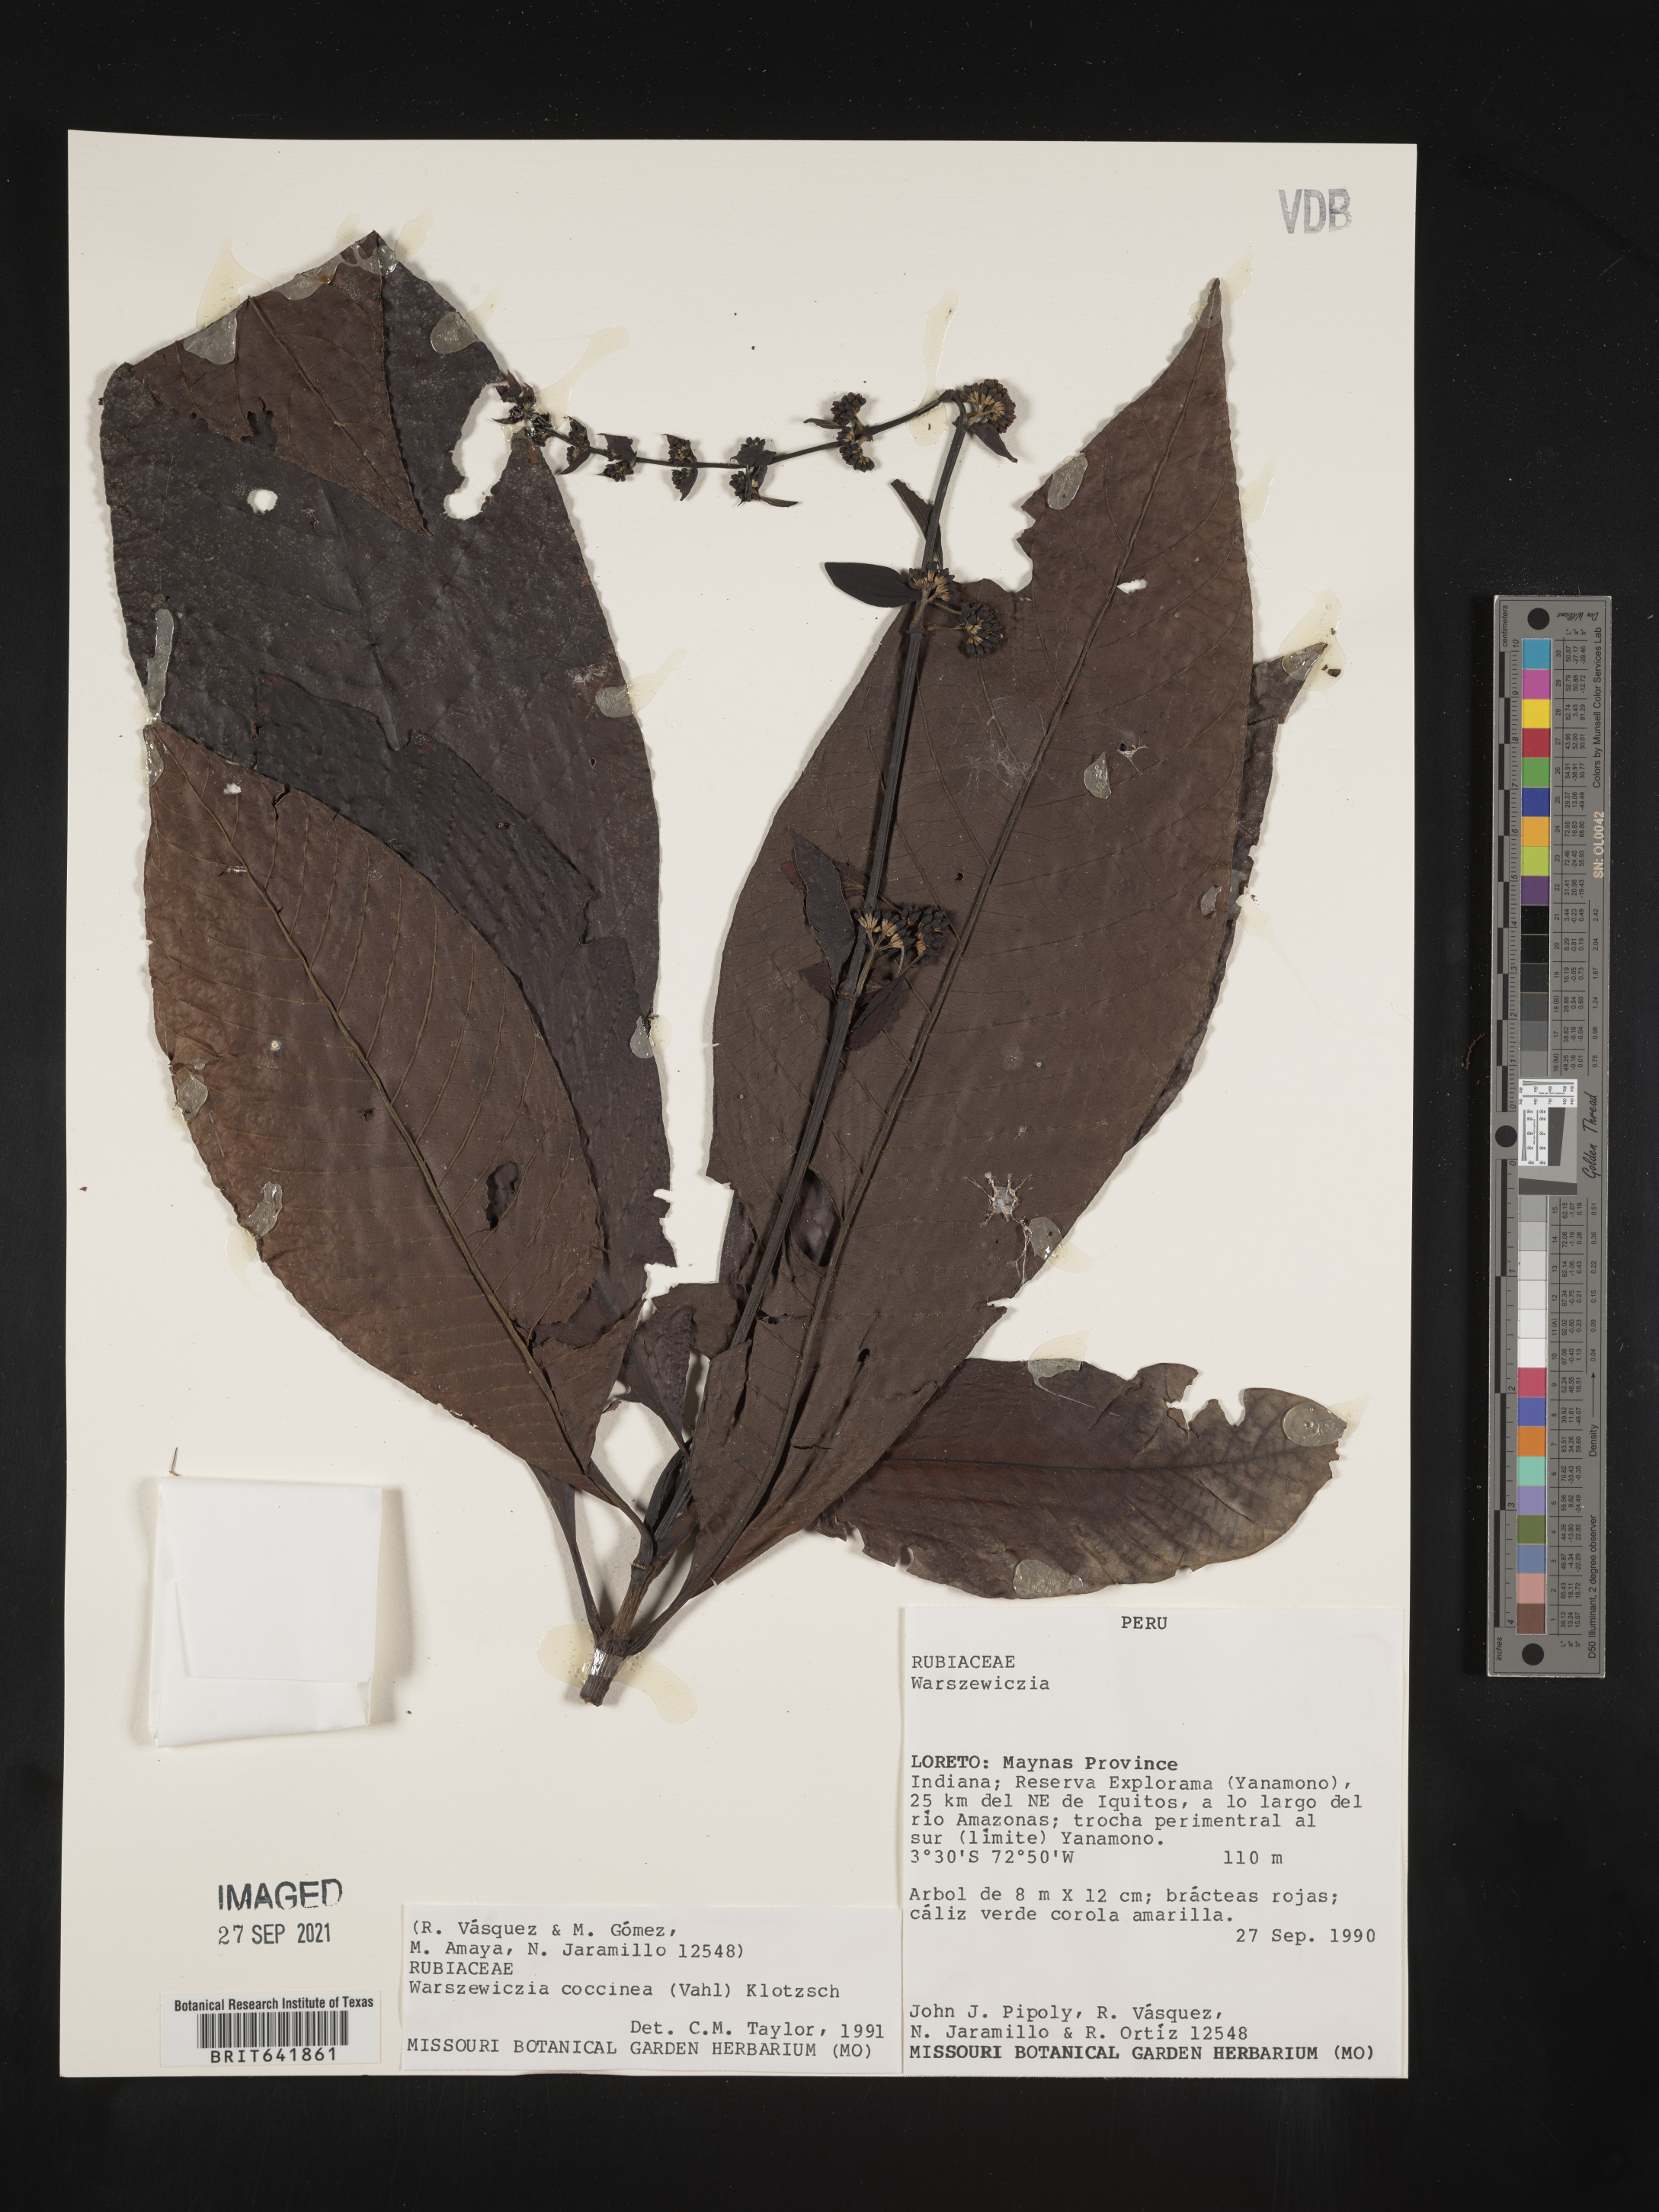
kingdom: Plantae
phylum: Tracheophyta
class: Magnoliopsida
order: Gentianales
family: Rubiaceae
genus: Warszewiczia
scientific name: Warszewiczia
